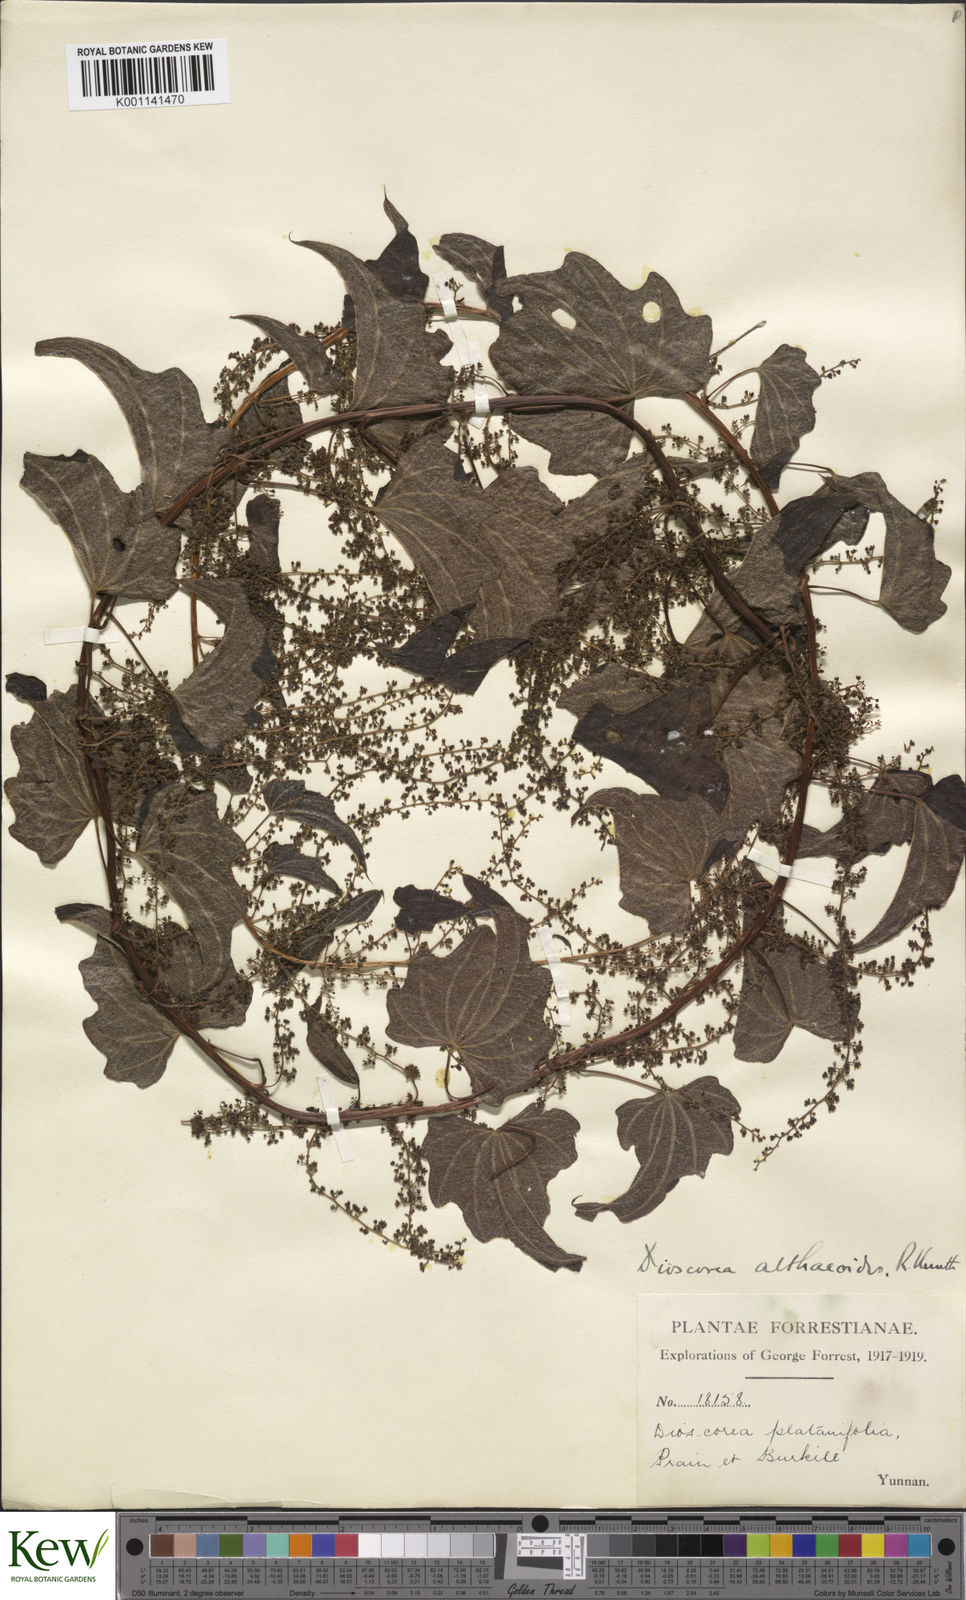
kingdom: Plantae
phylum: Tracheophyta
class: Liliopsida
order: Dioscoreales
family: Dioscoreaceae
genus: Dioscorea
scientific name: Dioscorea althaeoides
